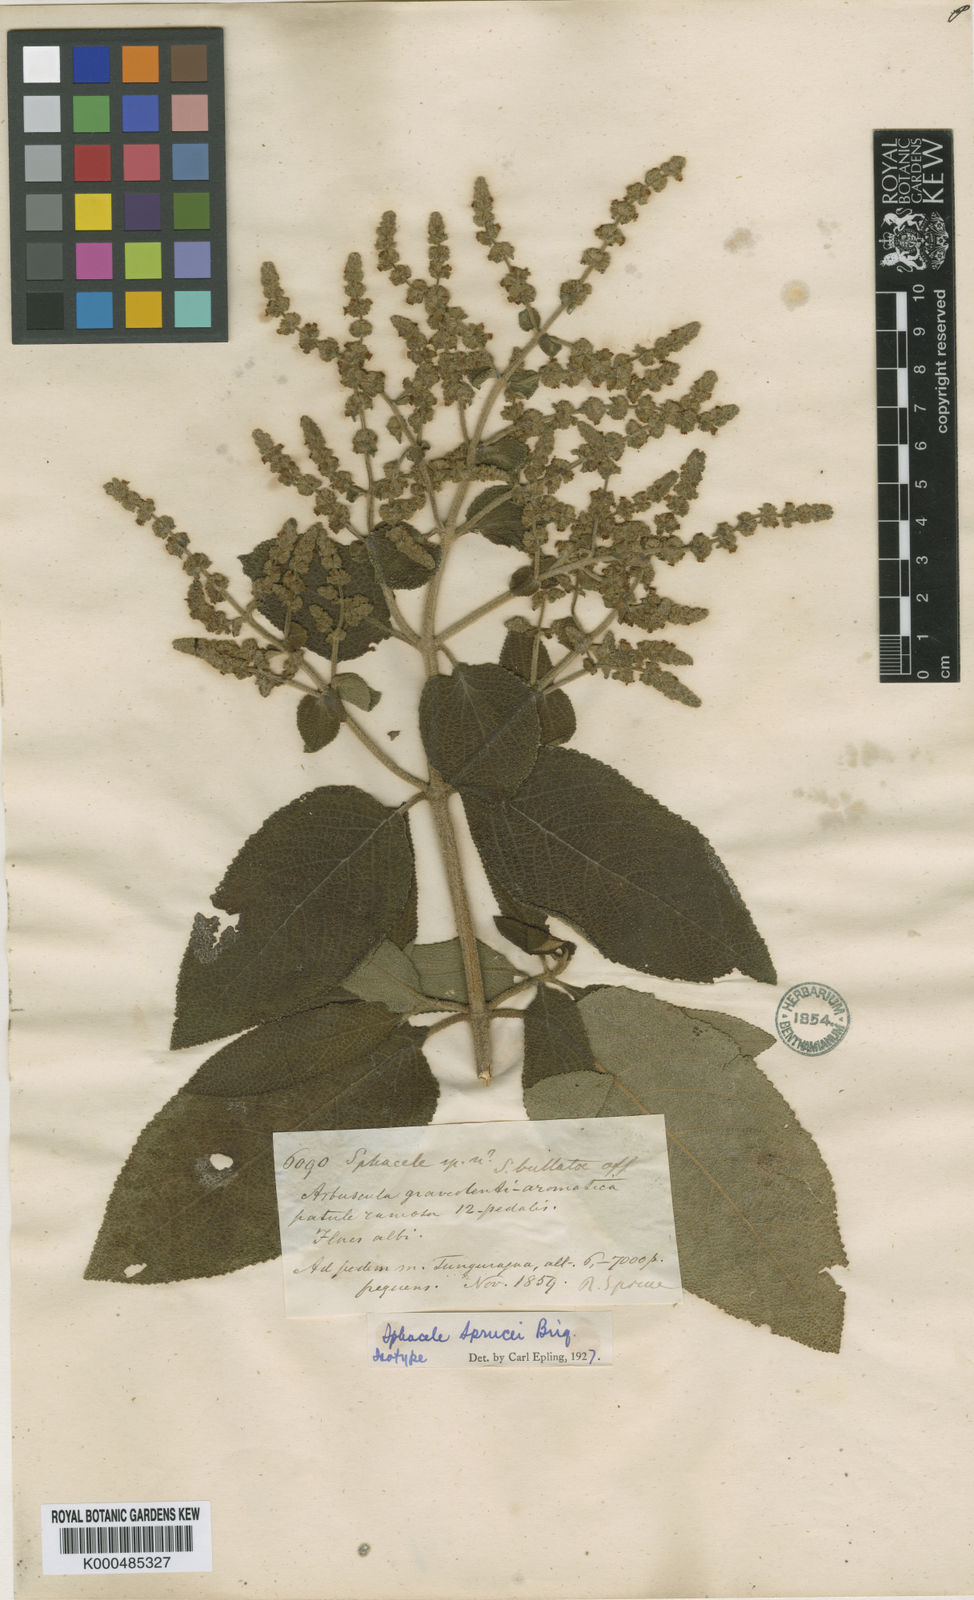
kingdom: Plantae
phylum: Tracheophyta
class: Magnoliopsida
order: Lamiales
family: Lamiaceae
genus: Lepechinia
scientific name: Lepechinia betonicifolia
